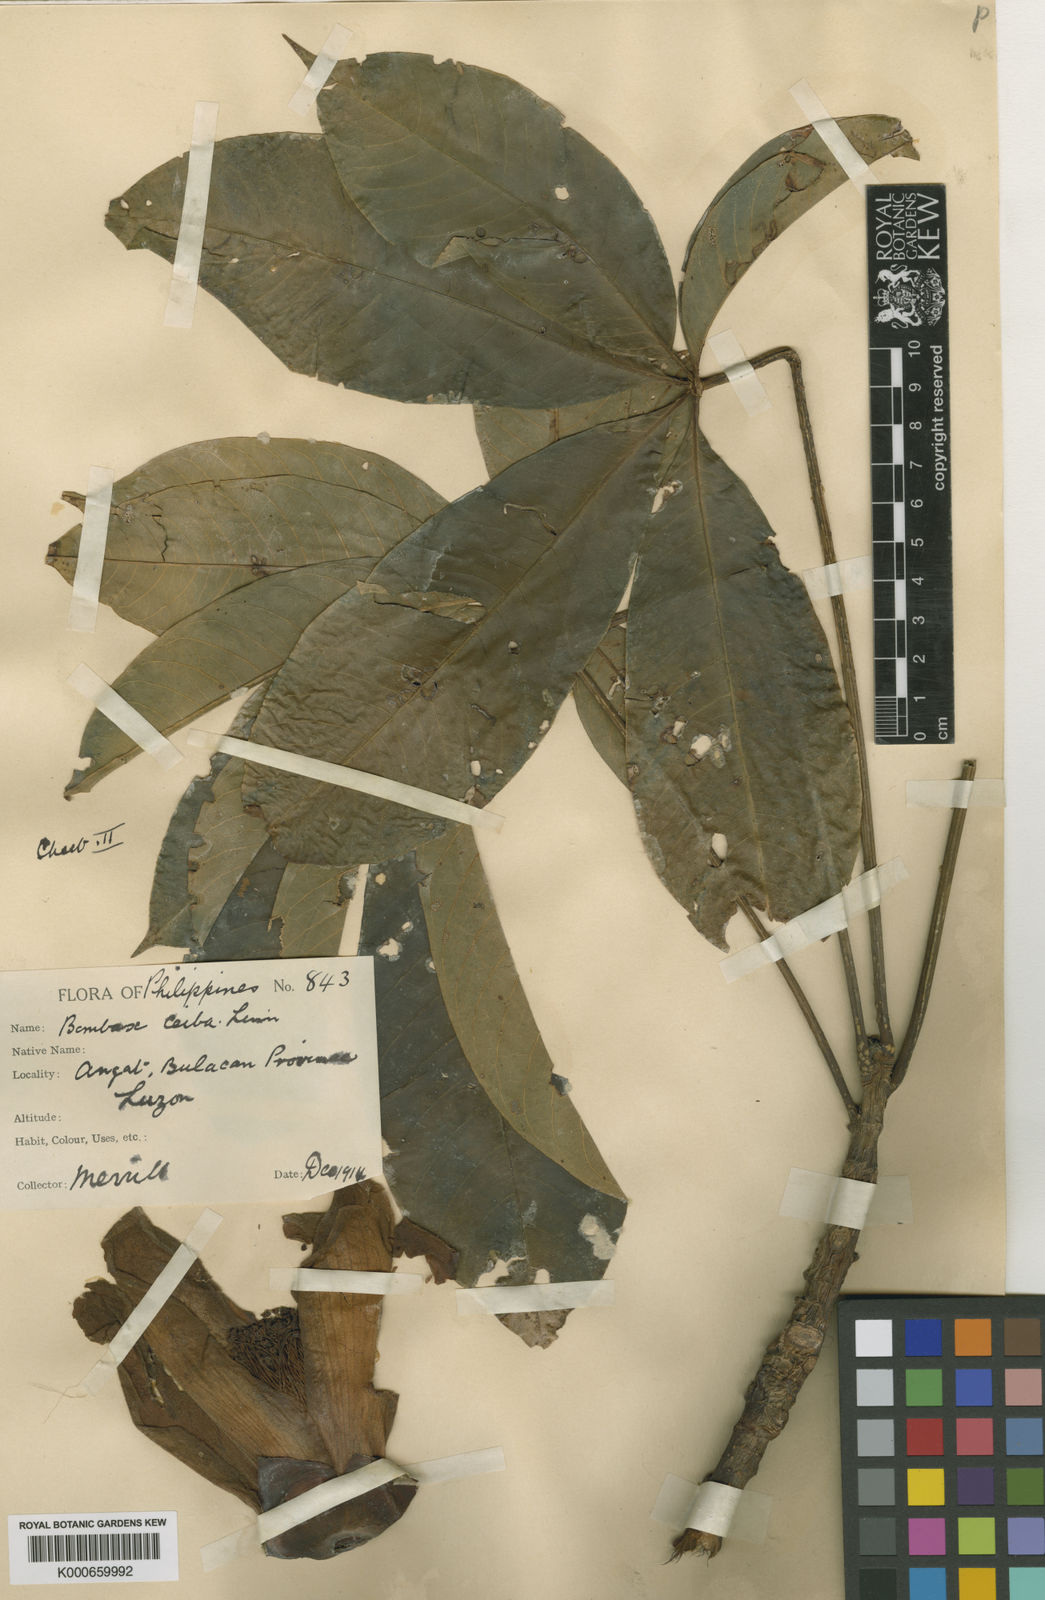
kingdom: Plantae
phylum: Tracheophyta
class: Magnoliopsida
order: Malvales
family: Malvaceae
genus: Bombax
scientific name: Bombax blancoanum
